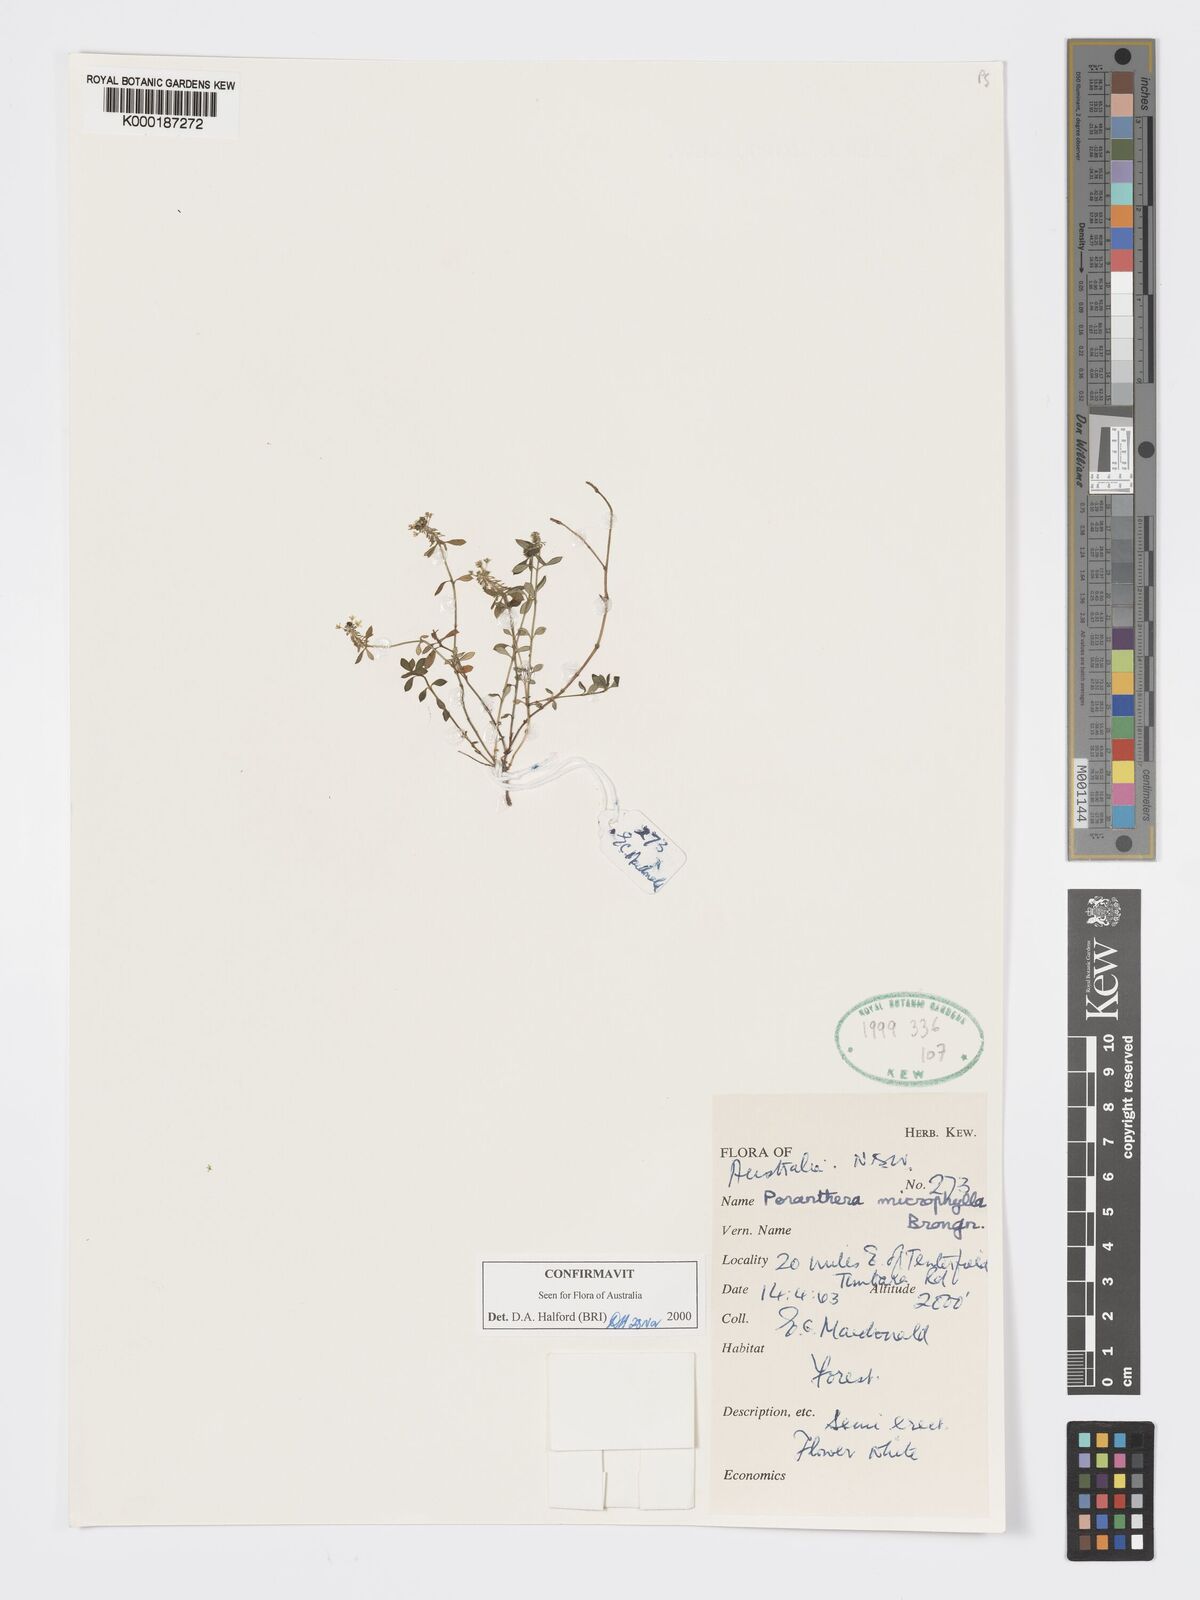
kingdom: Plantae
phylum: Tracheophyta
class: Magnoliopsida
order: Malpighiales
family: Phyllanthaceae
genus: Poranthera
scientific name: Poranthera microphylla
